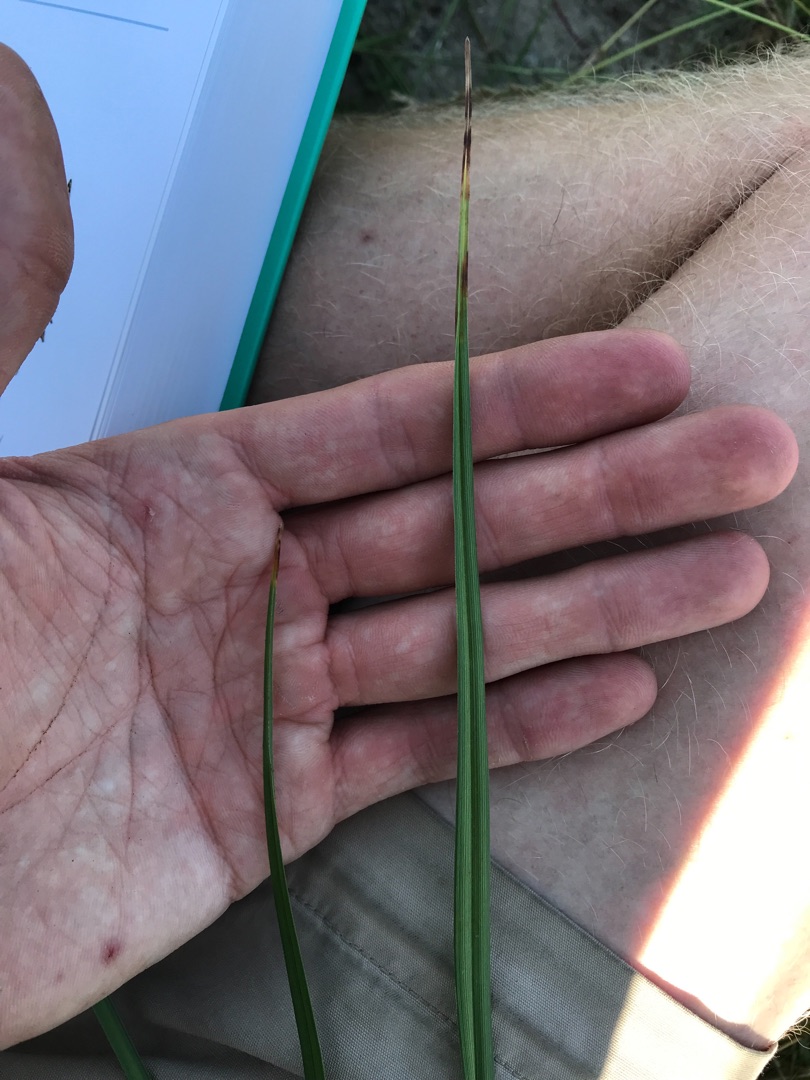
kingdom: Plantae
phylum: Tracheophyta
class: Liliopsida
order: Poales
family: Cyperaceae
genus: Bolboschoenus
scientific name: Bolboschoenus maritimus
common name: Strand-kogleaks
